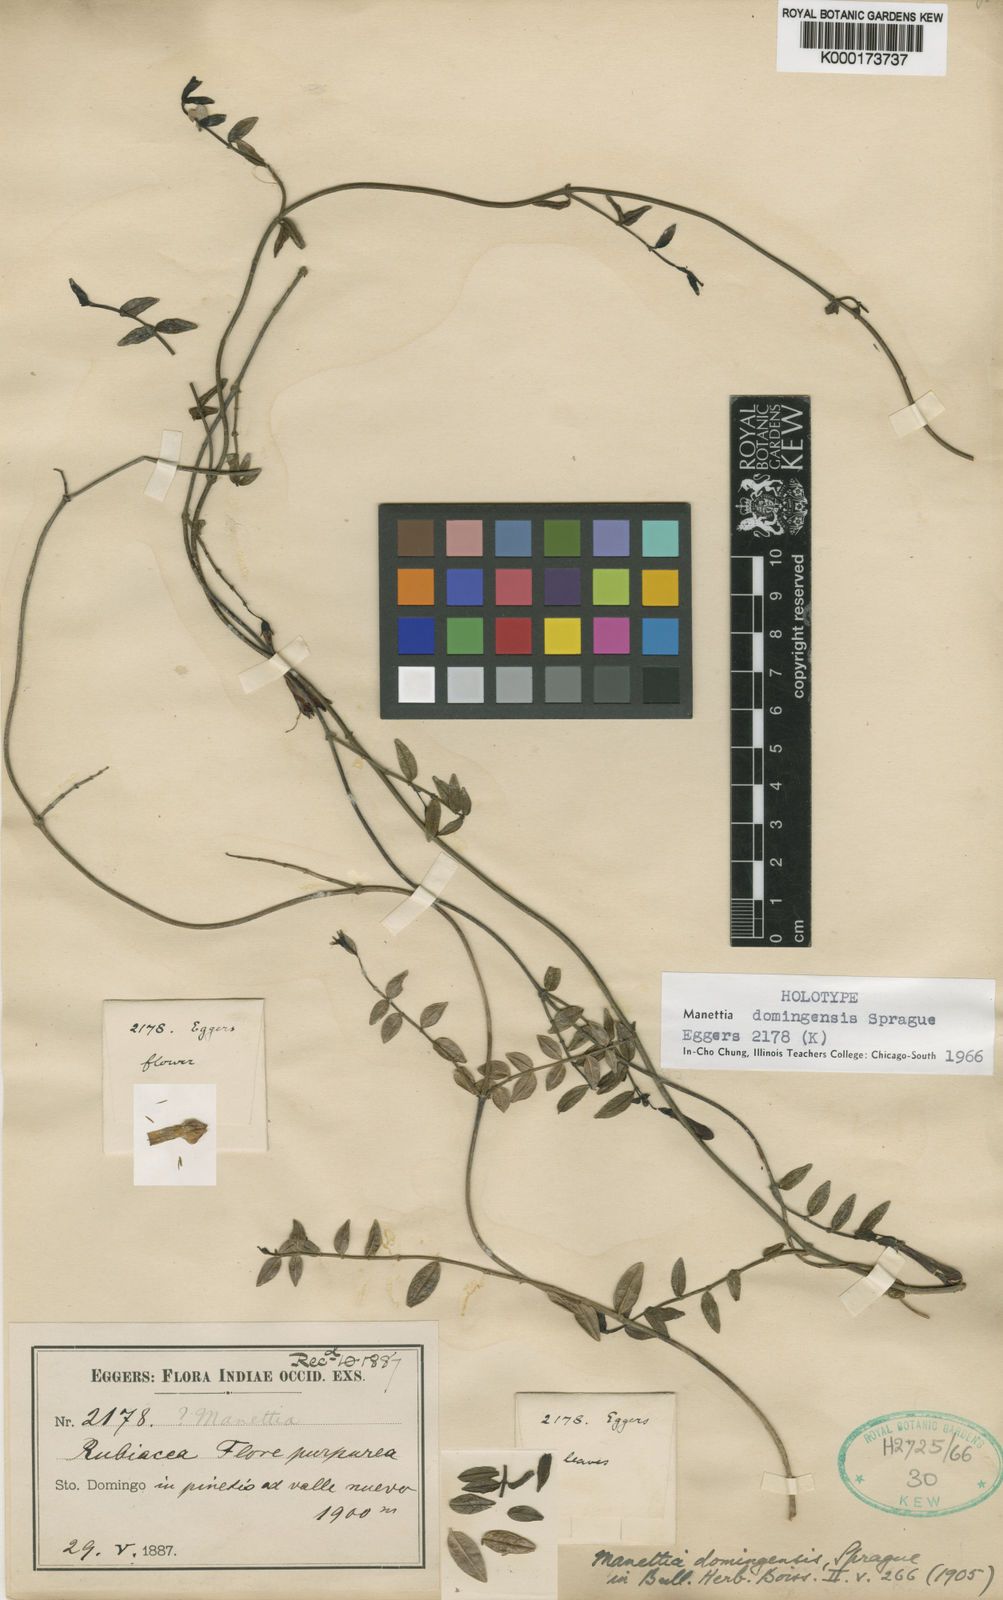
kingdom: Plantae
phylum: Tracheophyta
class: Magnoliopsida
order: Gentianales
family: Rubiaceae
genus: Manettia
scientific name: Manettia domingensis
